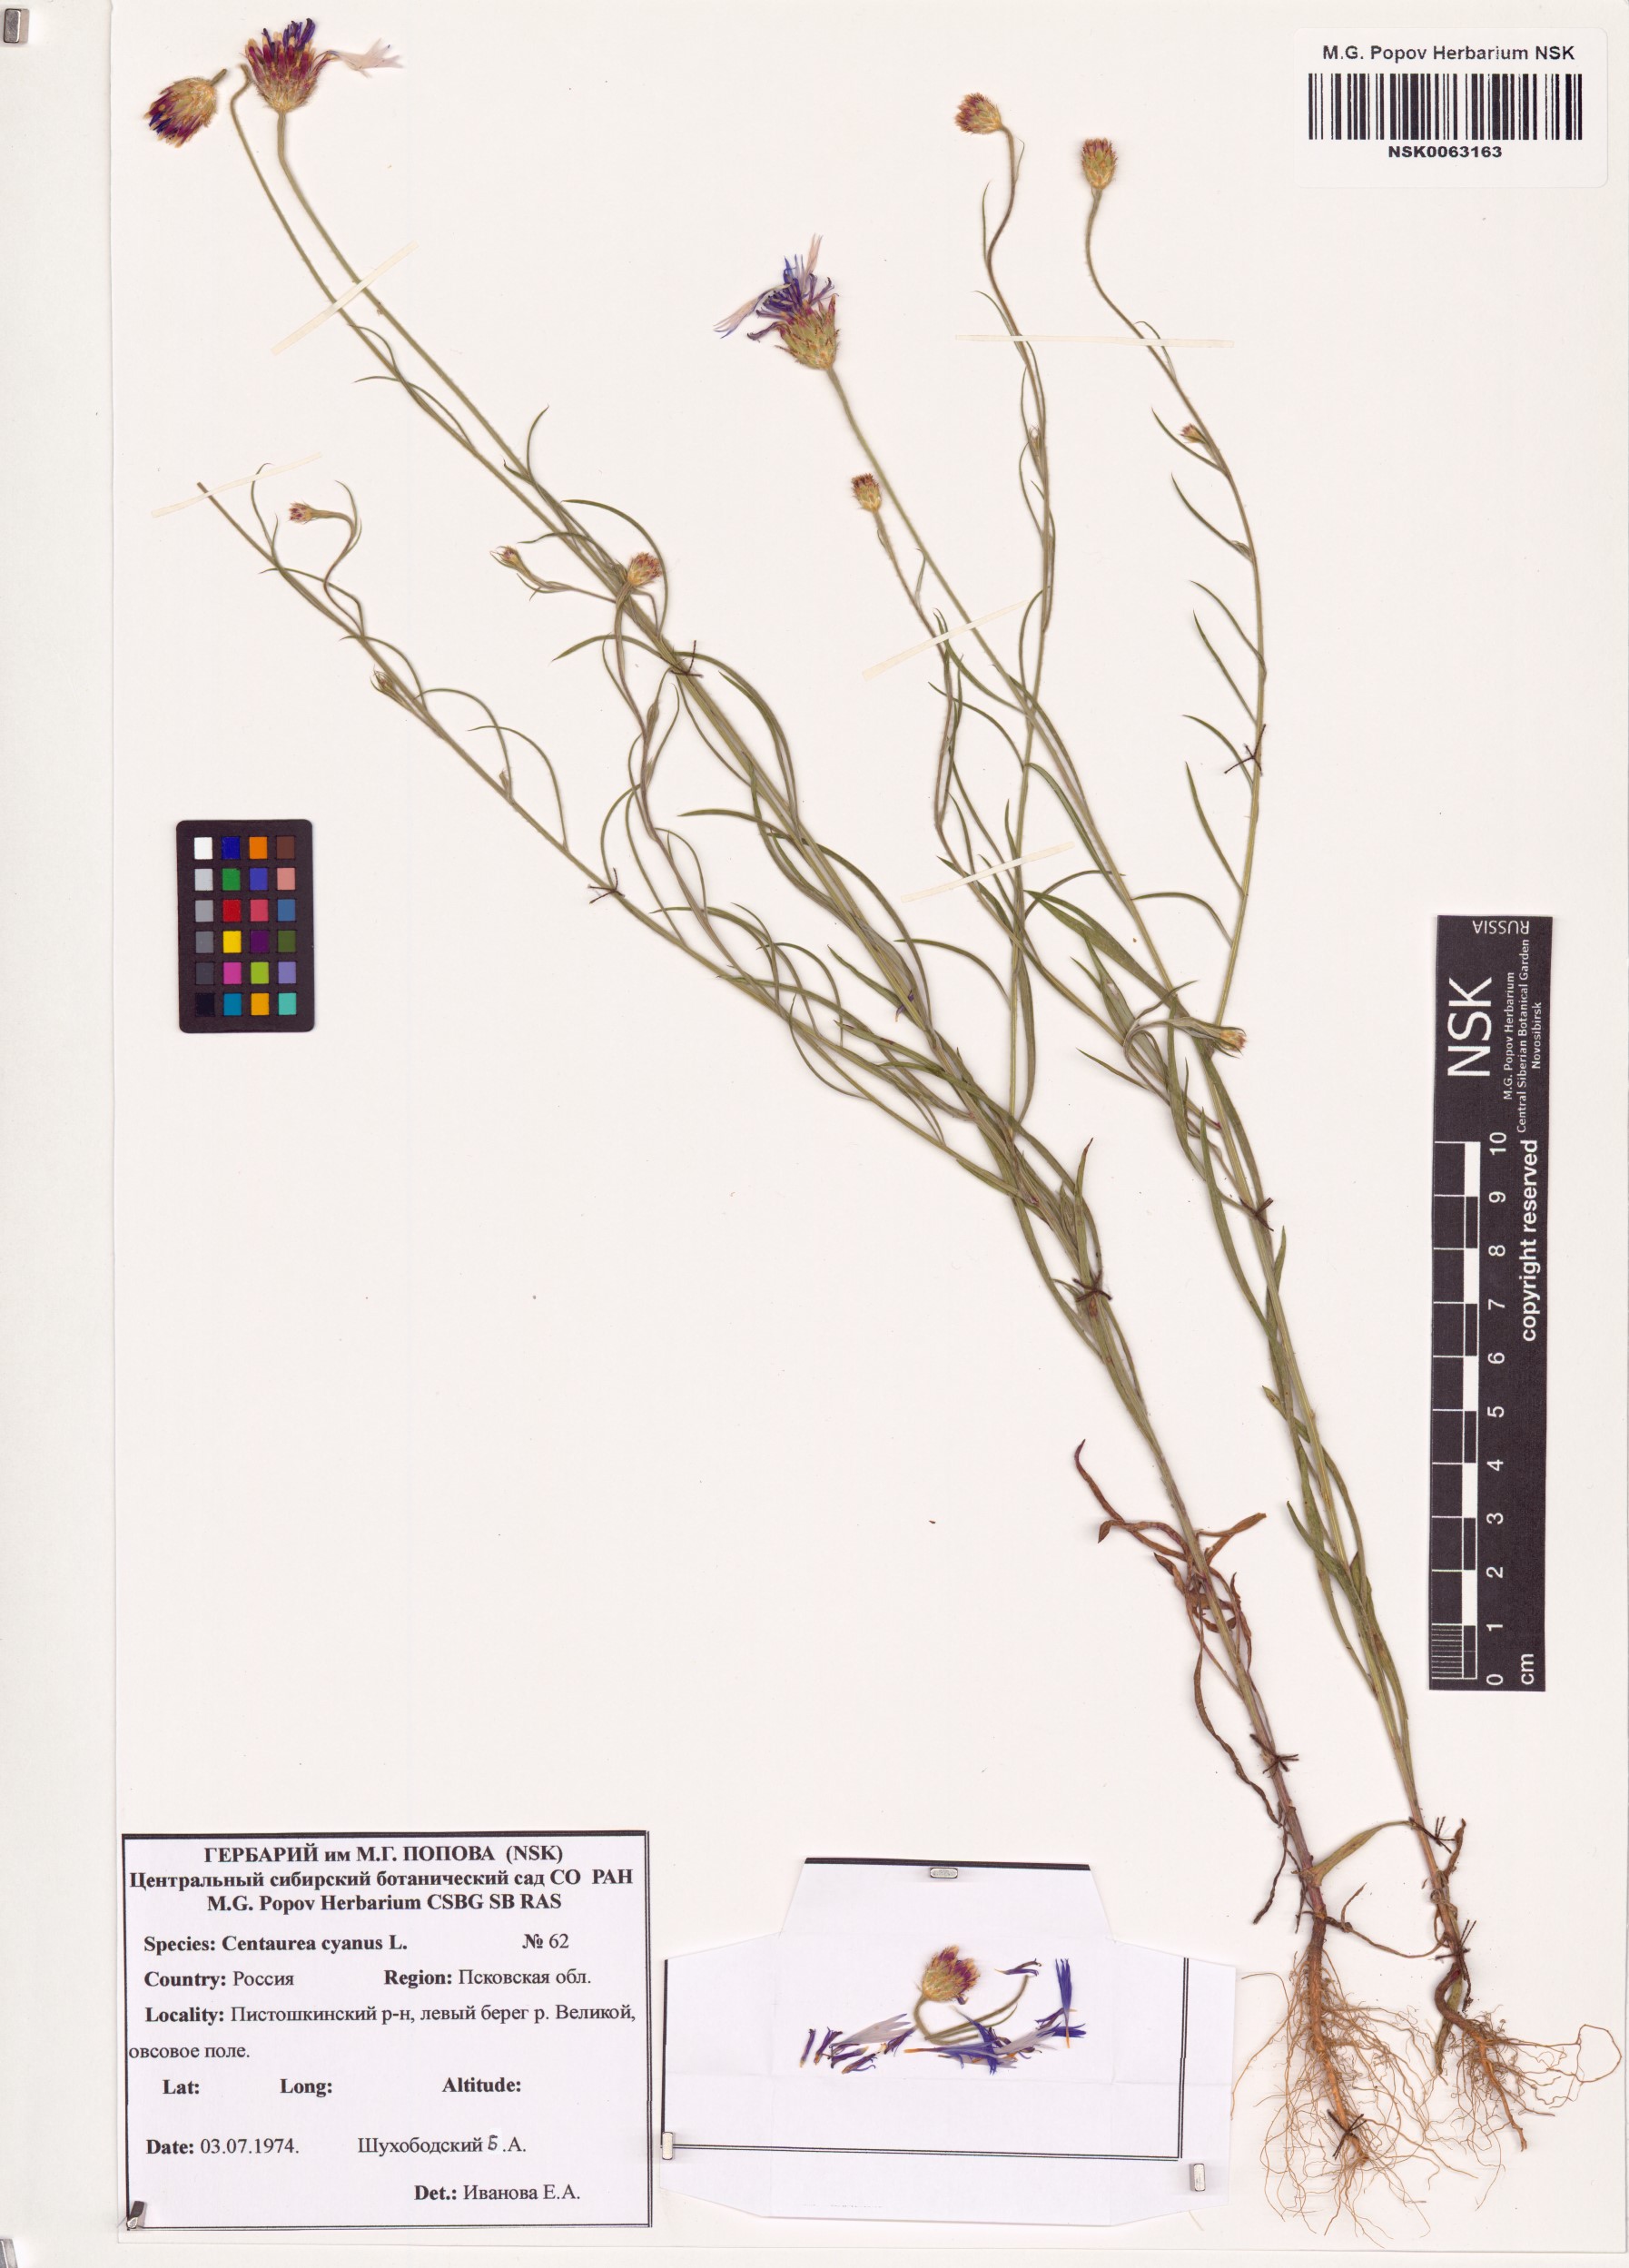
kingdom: Plantae
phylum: Tracheophyta
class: Magnoliopsida
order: Asterales
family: Asteraceae
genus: Centaurea
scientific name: Centaurea cyanus
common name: Cornflower
